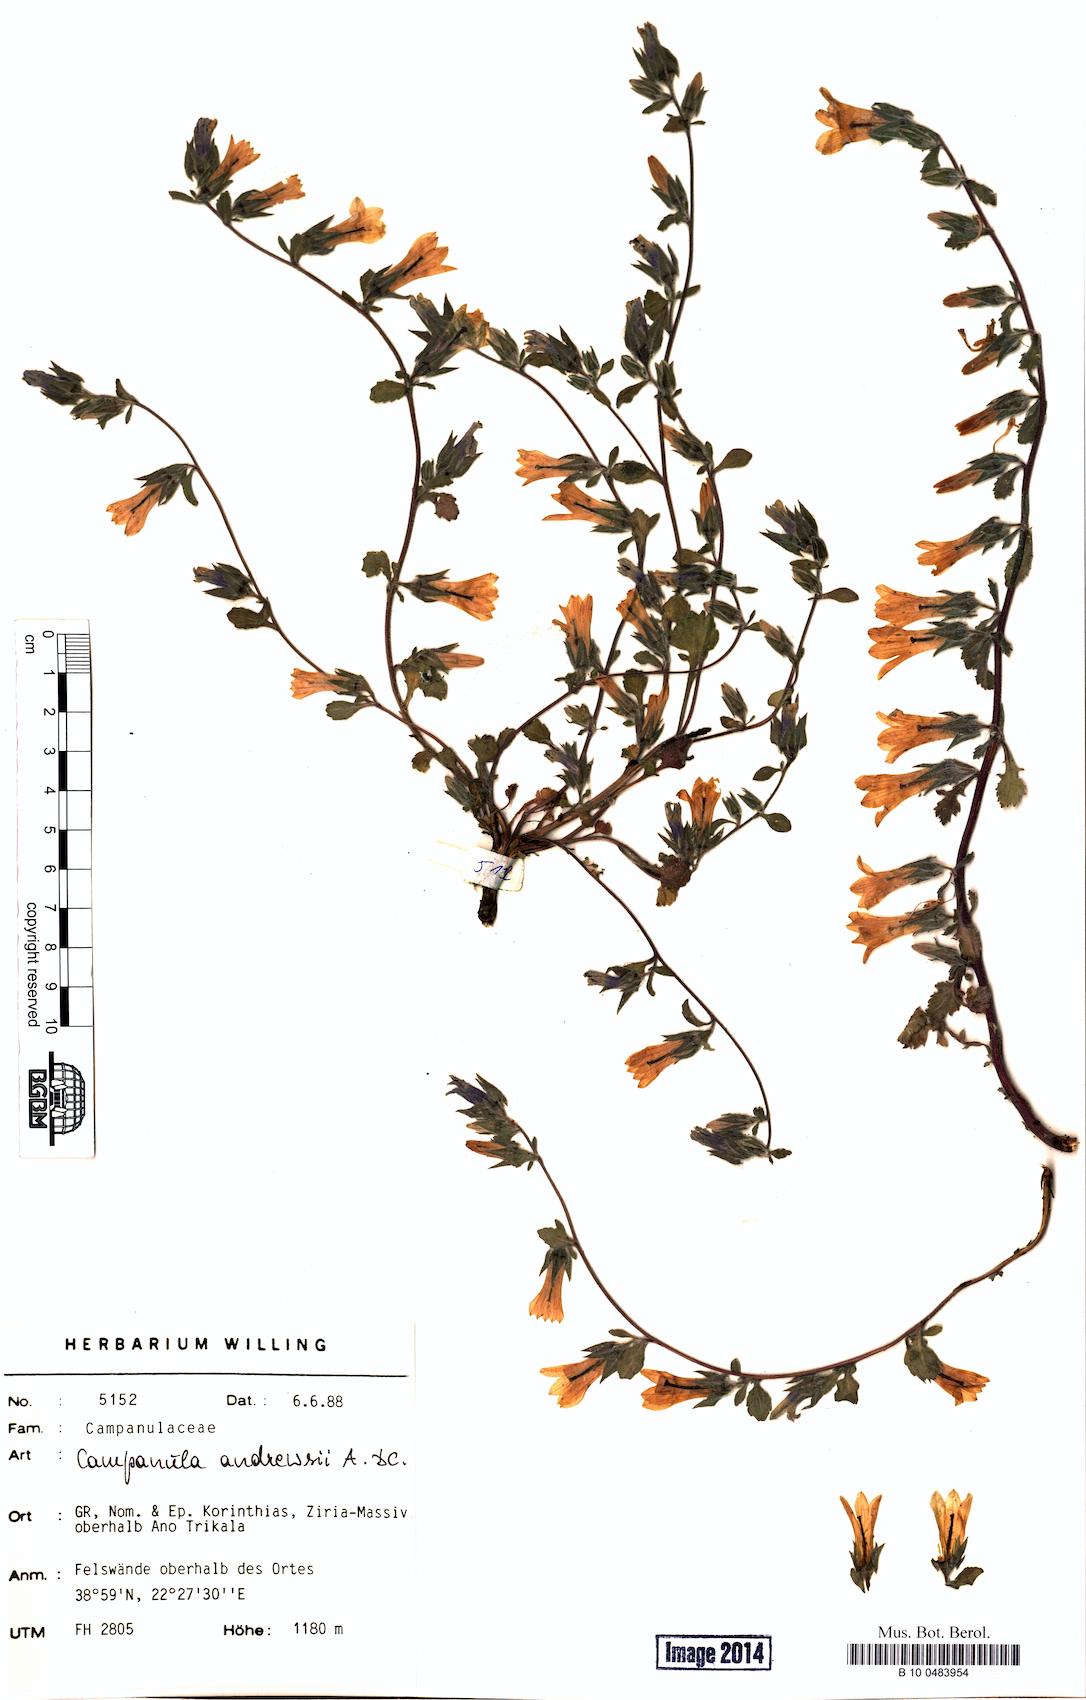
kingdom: Plantae
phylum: Tracheophyta
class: Magnoliopsida
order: Asterales
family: Campanulaceae
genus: Campanula
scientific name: Campanula andrewsii
